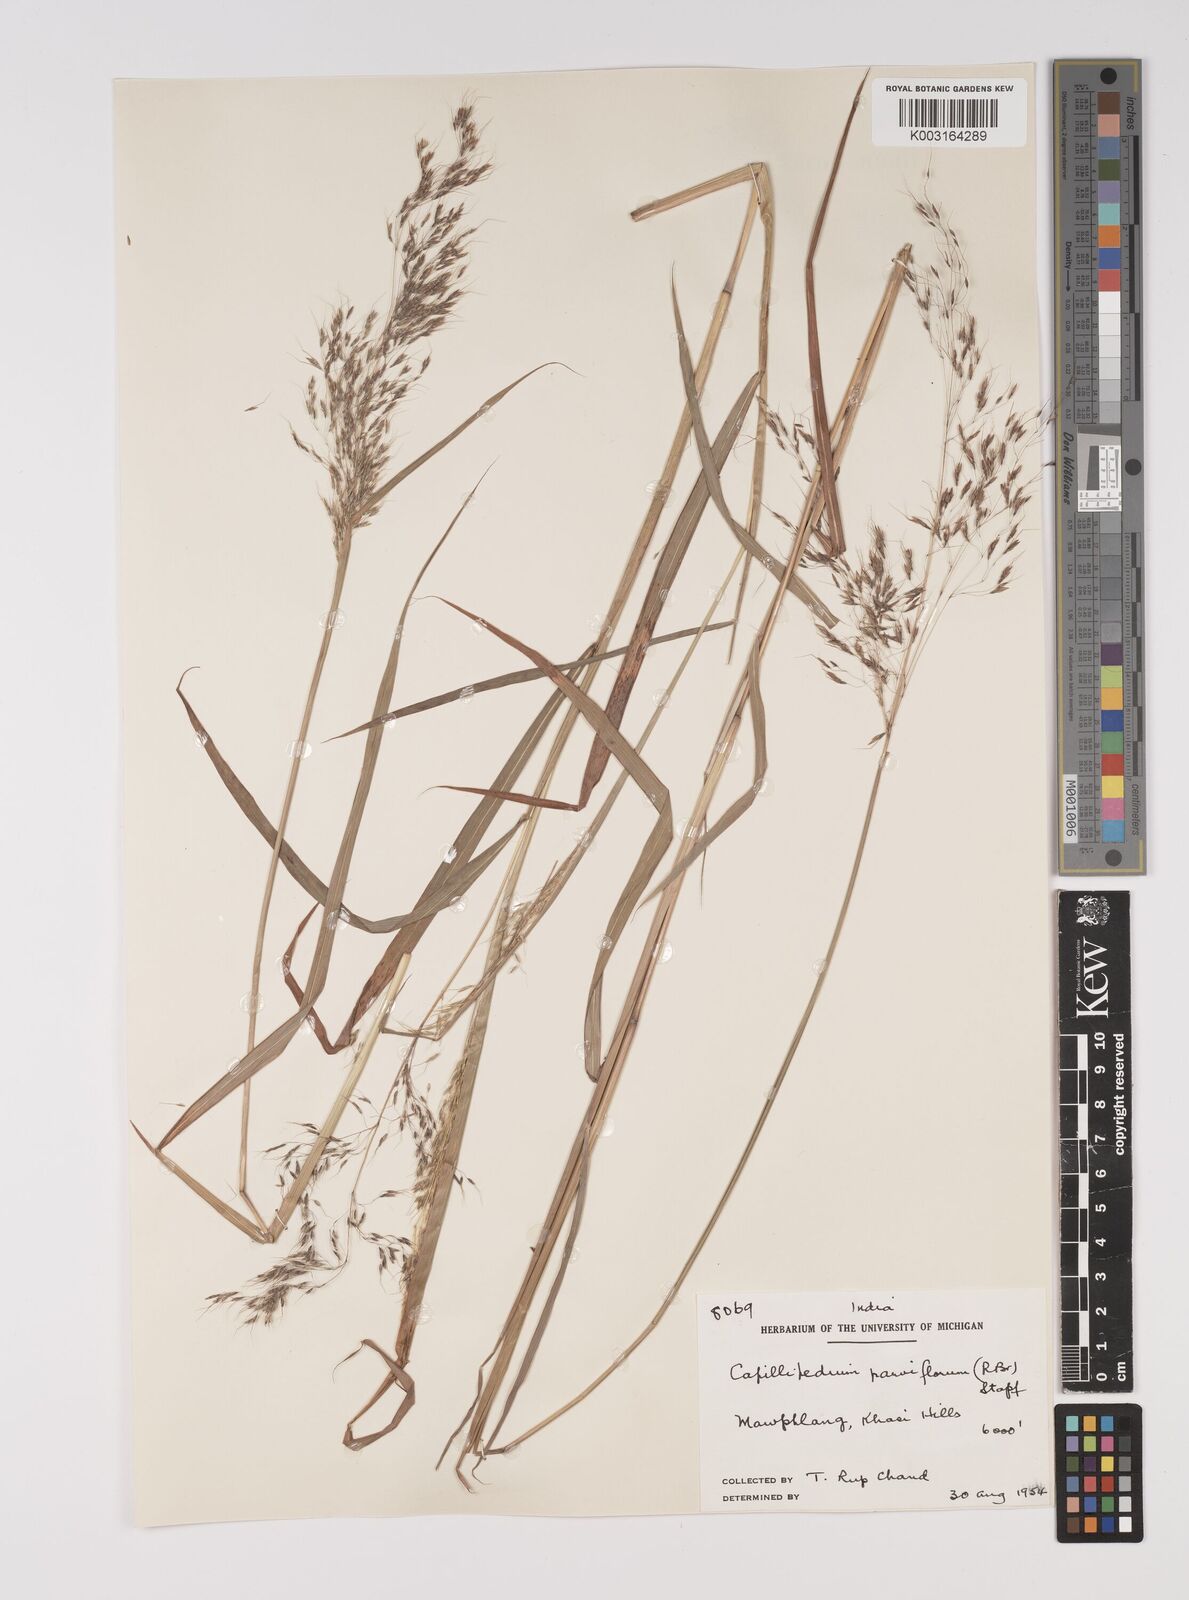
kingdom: Plantae
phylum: Tracheophyta
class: Liliopsida
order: Poales
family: Poaceae
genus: Capillipedium
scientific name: Capillipedium parviflorum
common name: Golden-beard
